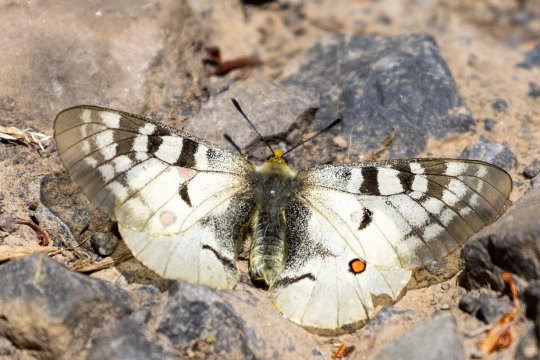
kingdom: Animalia
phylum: Arthropoda
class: Insecta
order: Lepidoptera
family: Papilionidae
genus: Parnassius
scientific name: Parnassius clodius
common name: Clodius Parnassian
